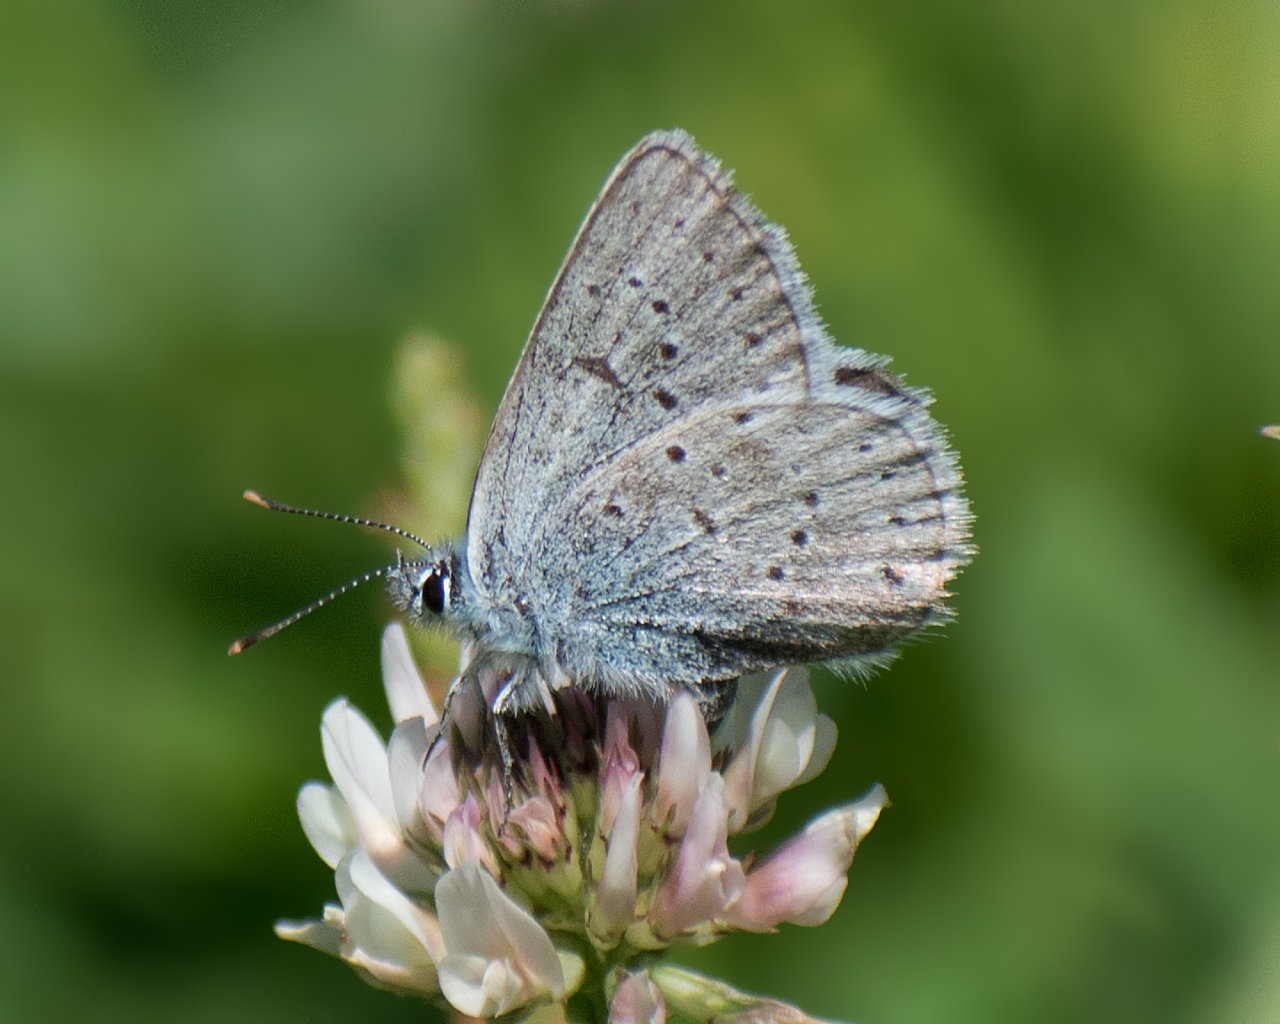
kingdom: Animalia
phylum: Arthropoda
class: Insecta
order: Lepidoptera
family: Lycaenidae
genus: Plebejus
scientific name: Plebejus saepiolus
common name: Greenish Blue
